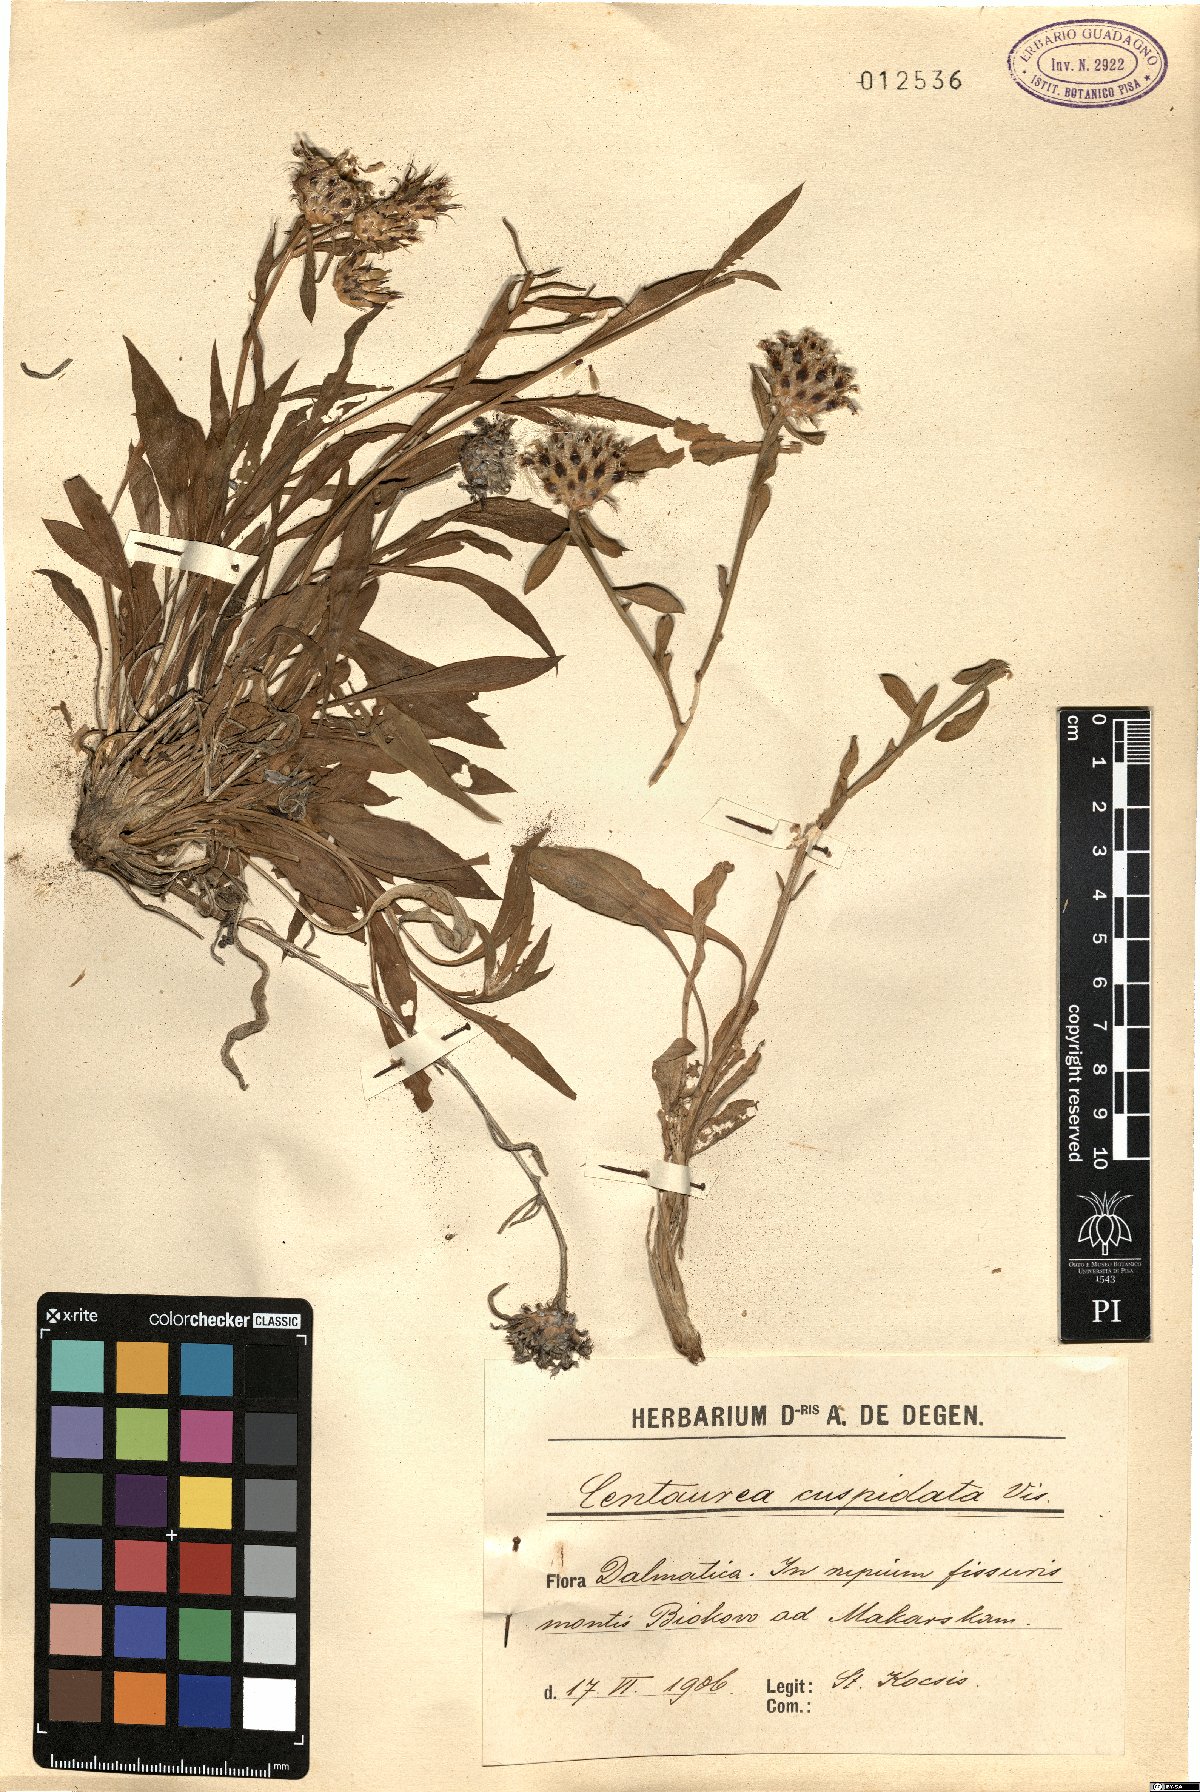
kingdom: Plantae
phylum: Tracheophyta
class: Magnoliopsida
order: Asterales
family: Asteraceae
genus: Centaurea
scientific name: Centaurea cuspidata
